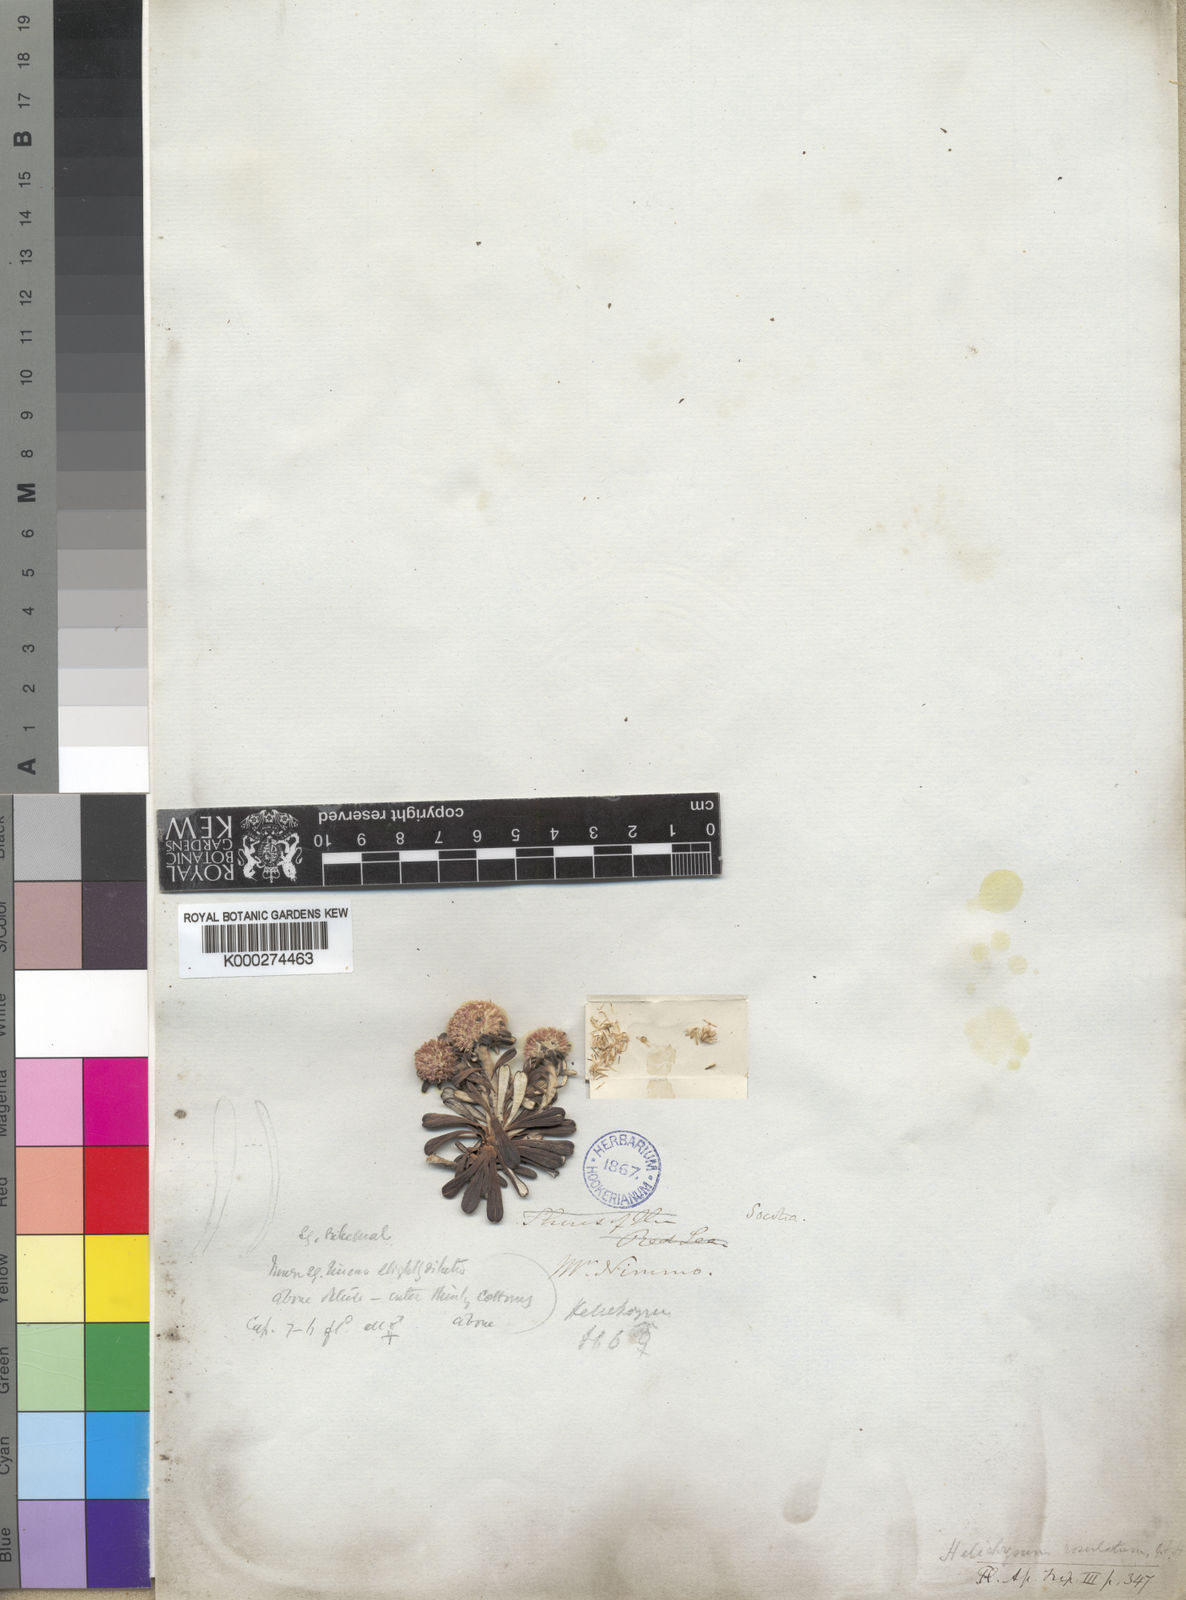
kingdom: Plantae
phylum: Tracheophyta
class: Magnoliopsida
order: Asterales
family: Asteraceae
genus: Libinhania
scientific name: Libinhania rosulata
